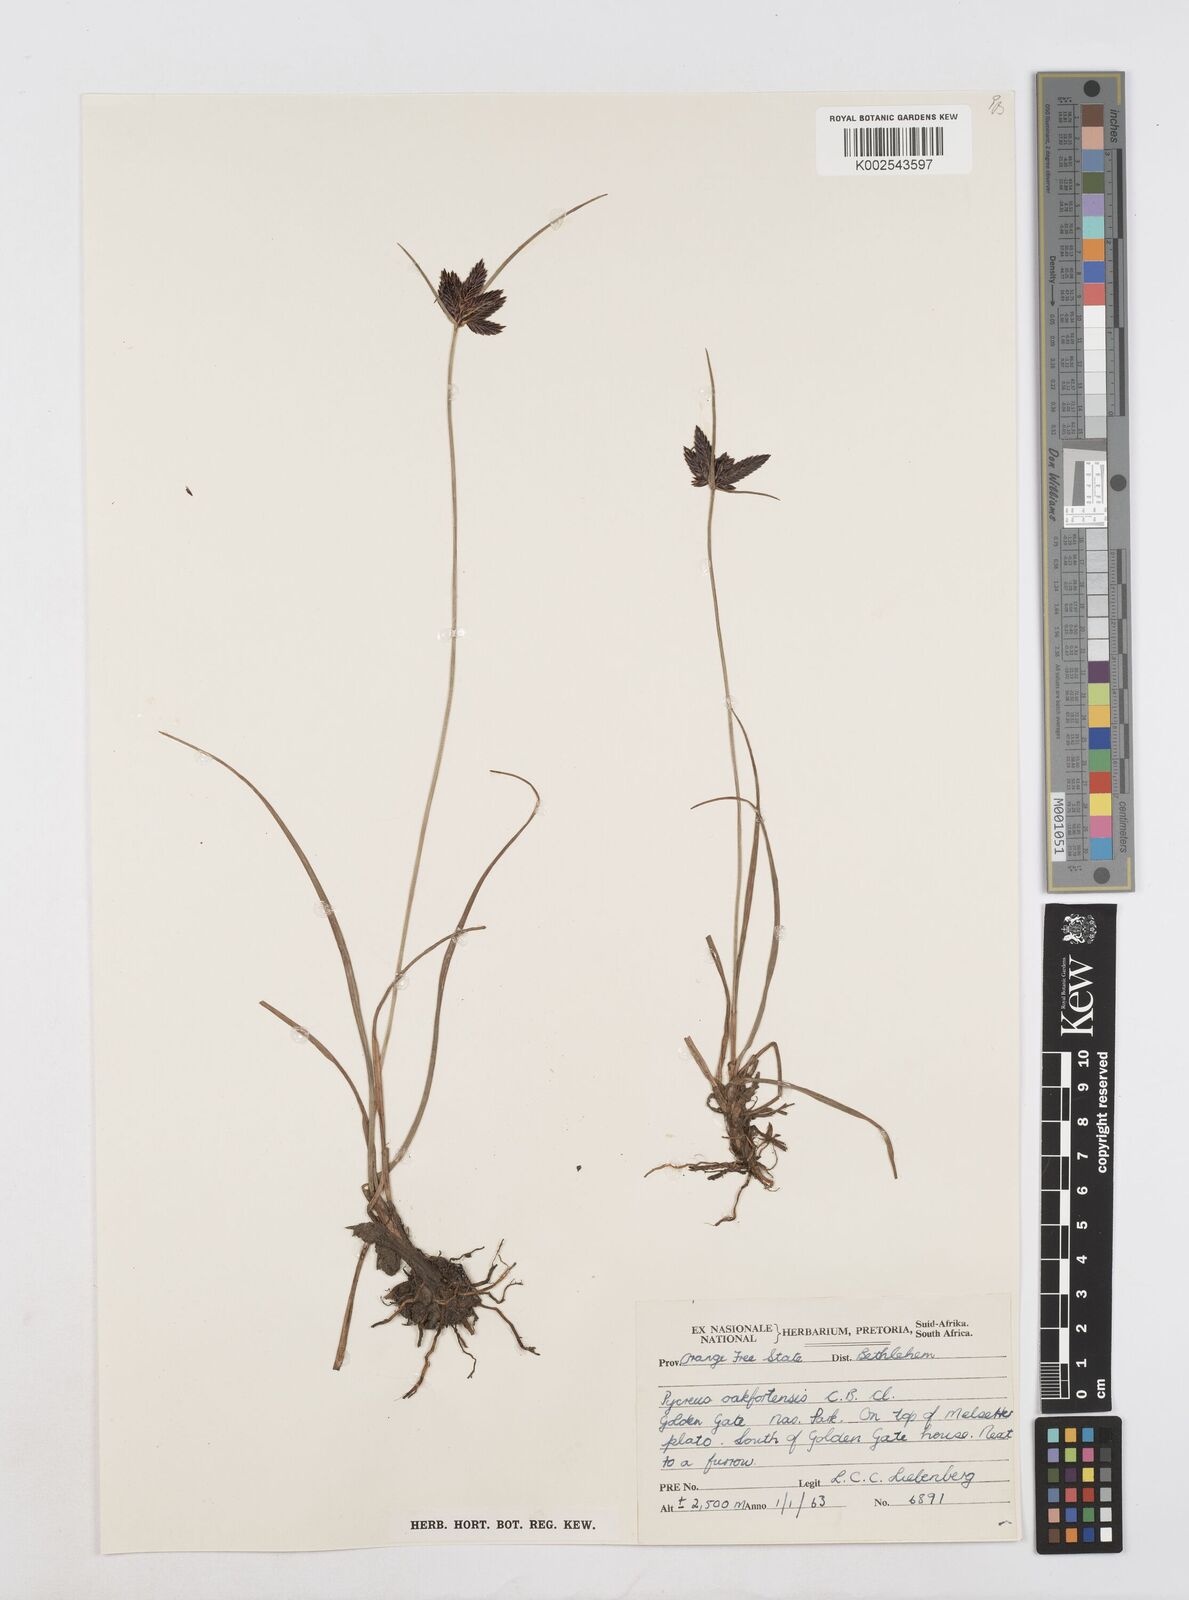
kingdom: Plantae
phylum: Tracheophyta
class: Liliopsida
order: Poales
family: Cyperaceae
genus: Cyperus
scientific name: Cyperus oakfortensis
